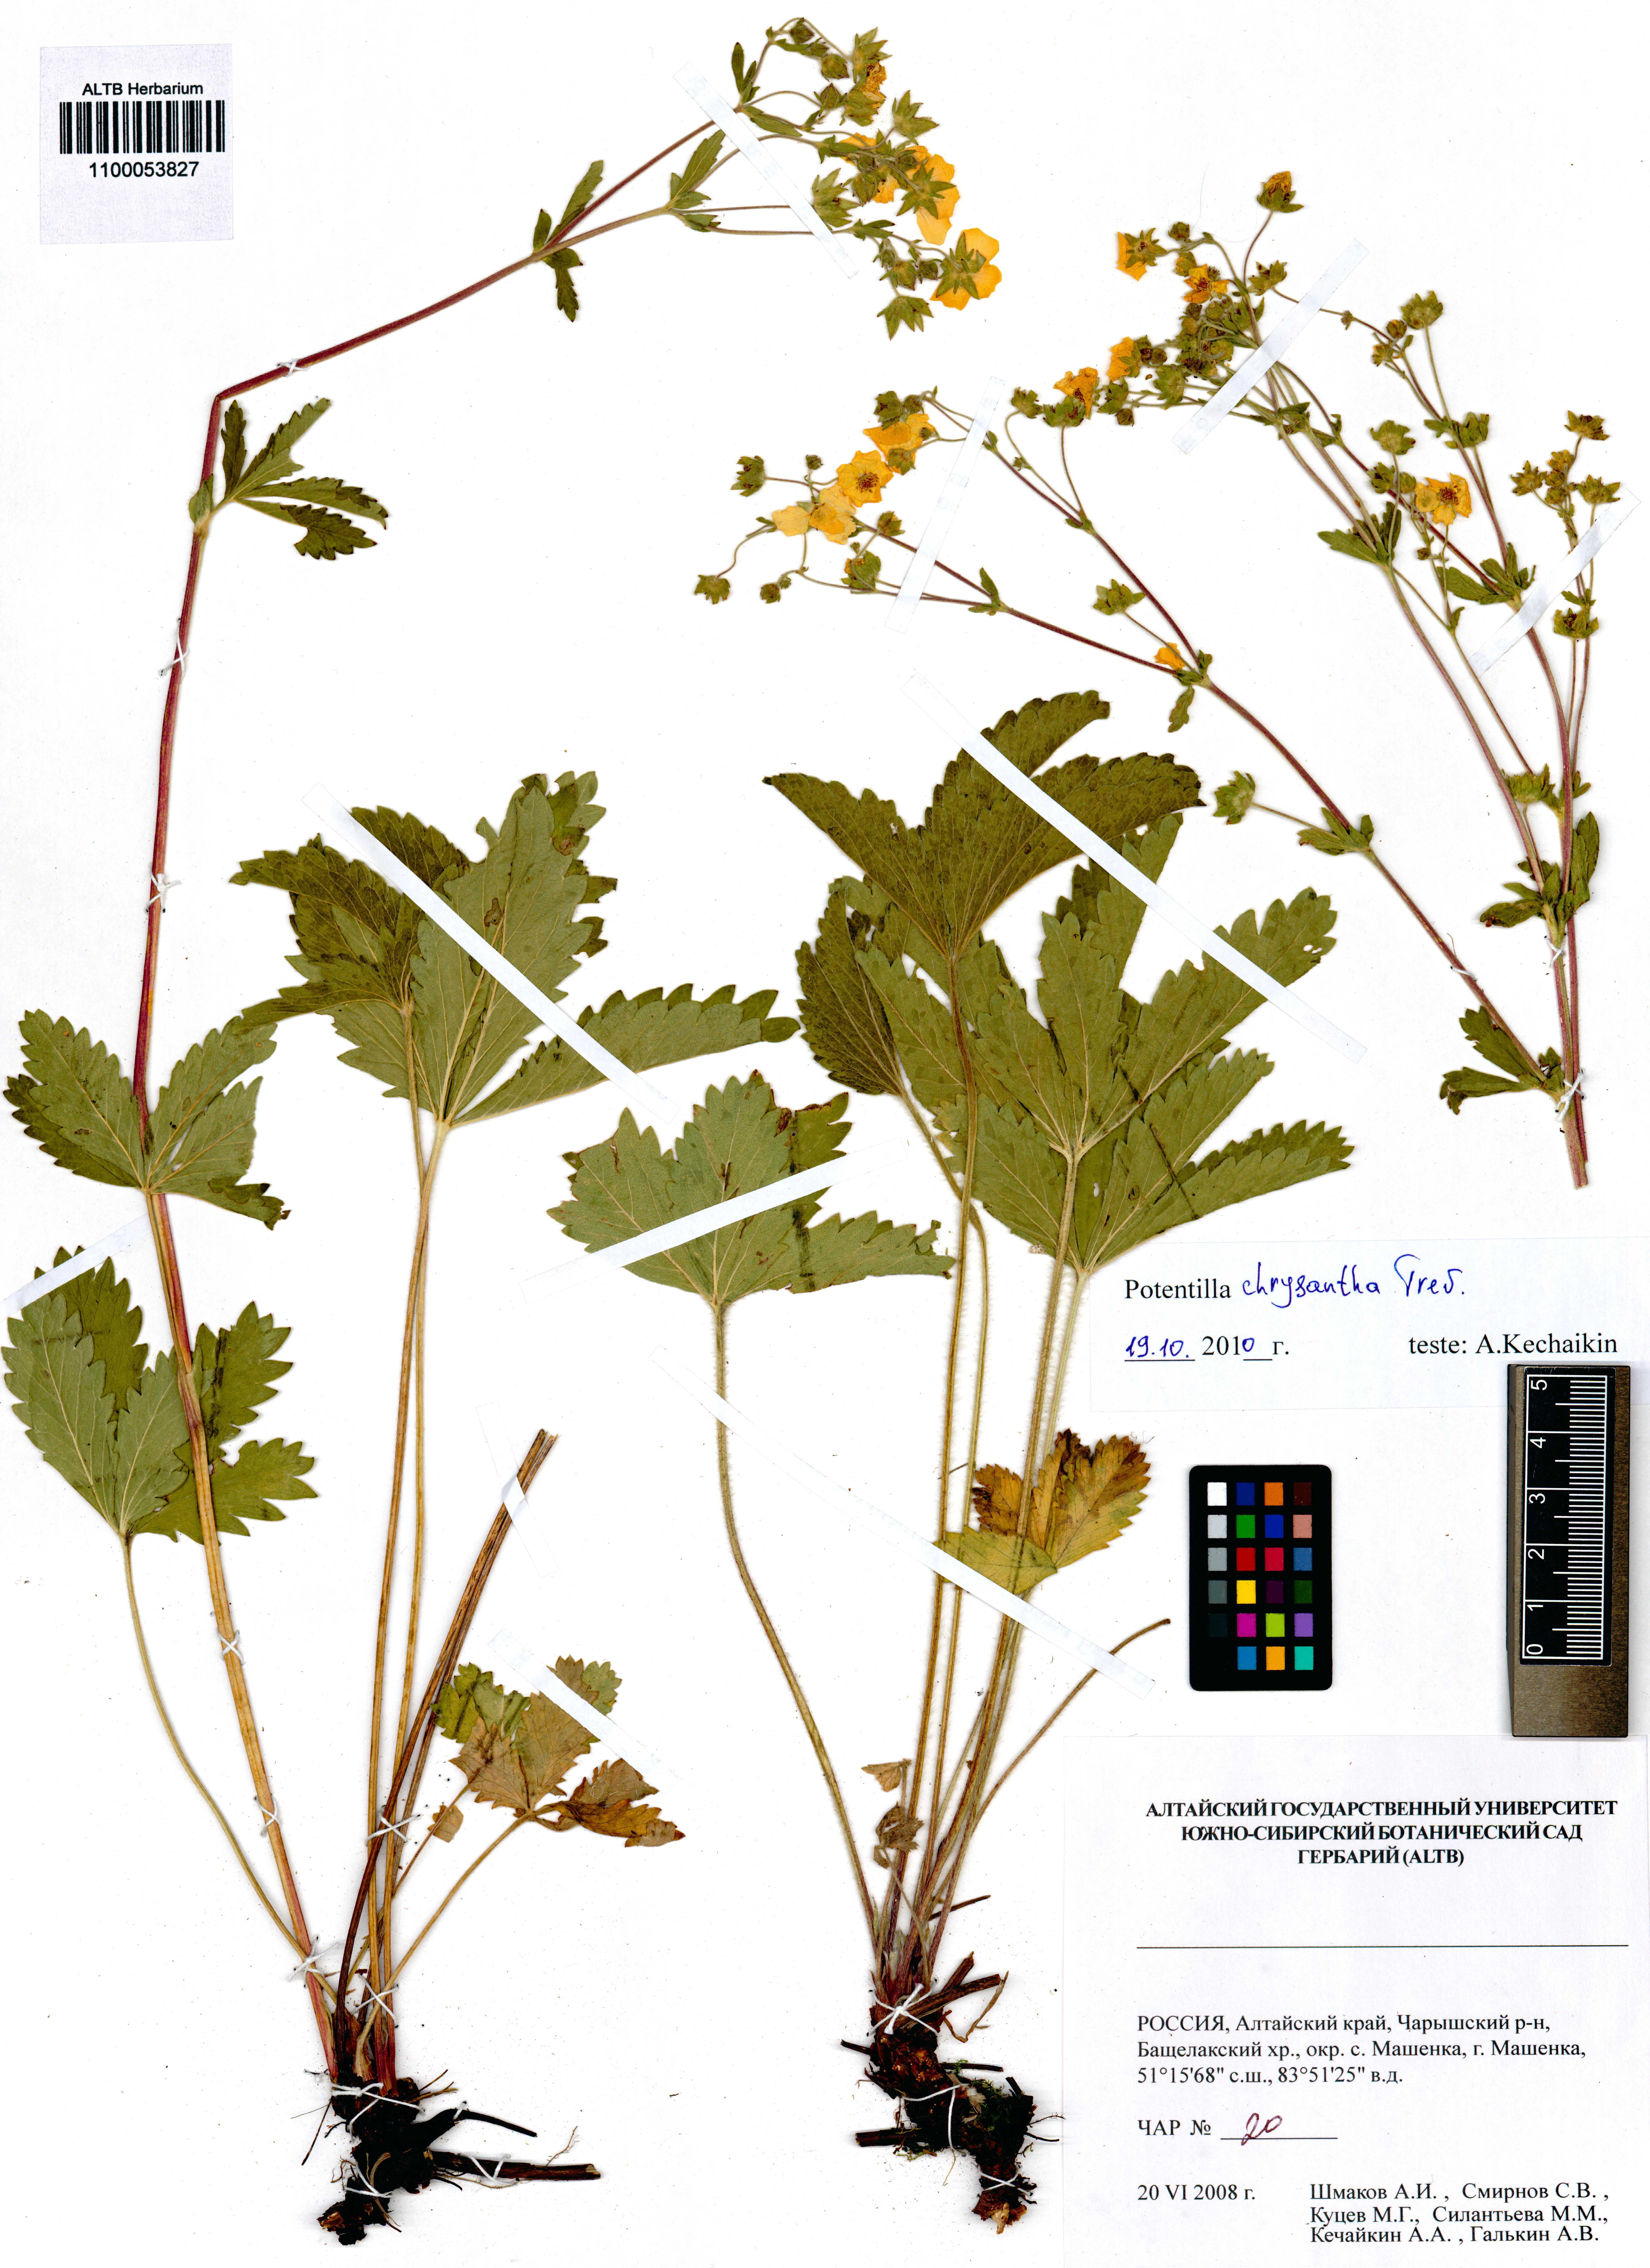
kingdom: Plantae
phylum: Tracheophyta
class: Magnoliopsida
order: Rosales
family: Rosaceae
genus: Potentilla
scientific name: Potentilla chrysantha
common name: Thuringian cinquefoil
